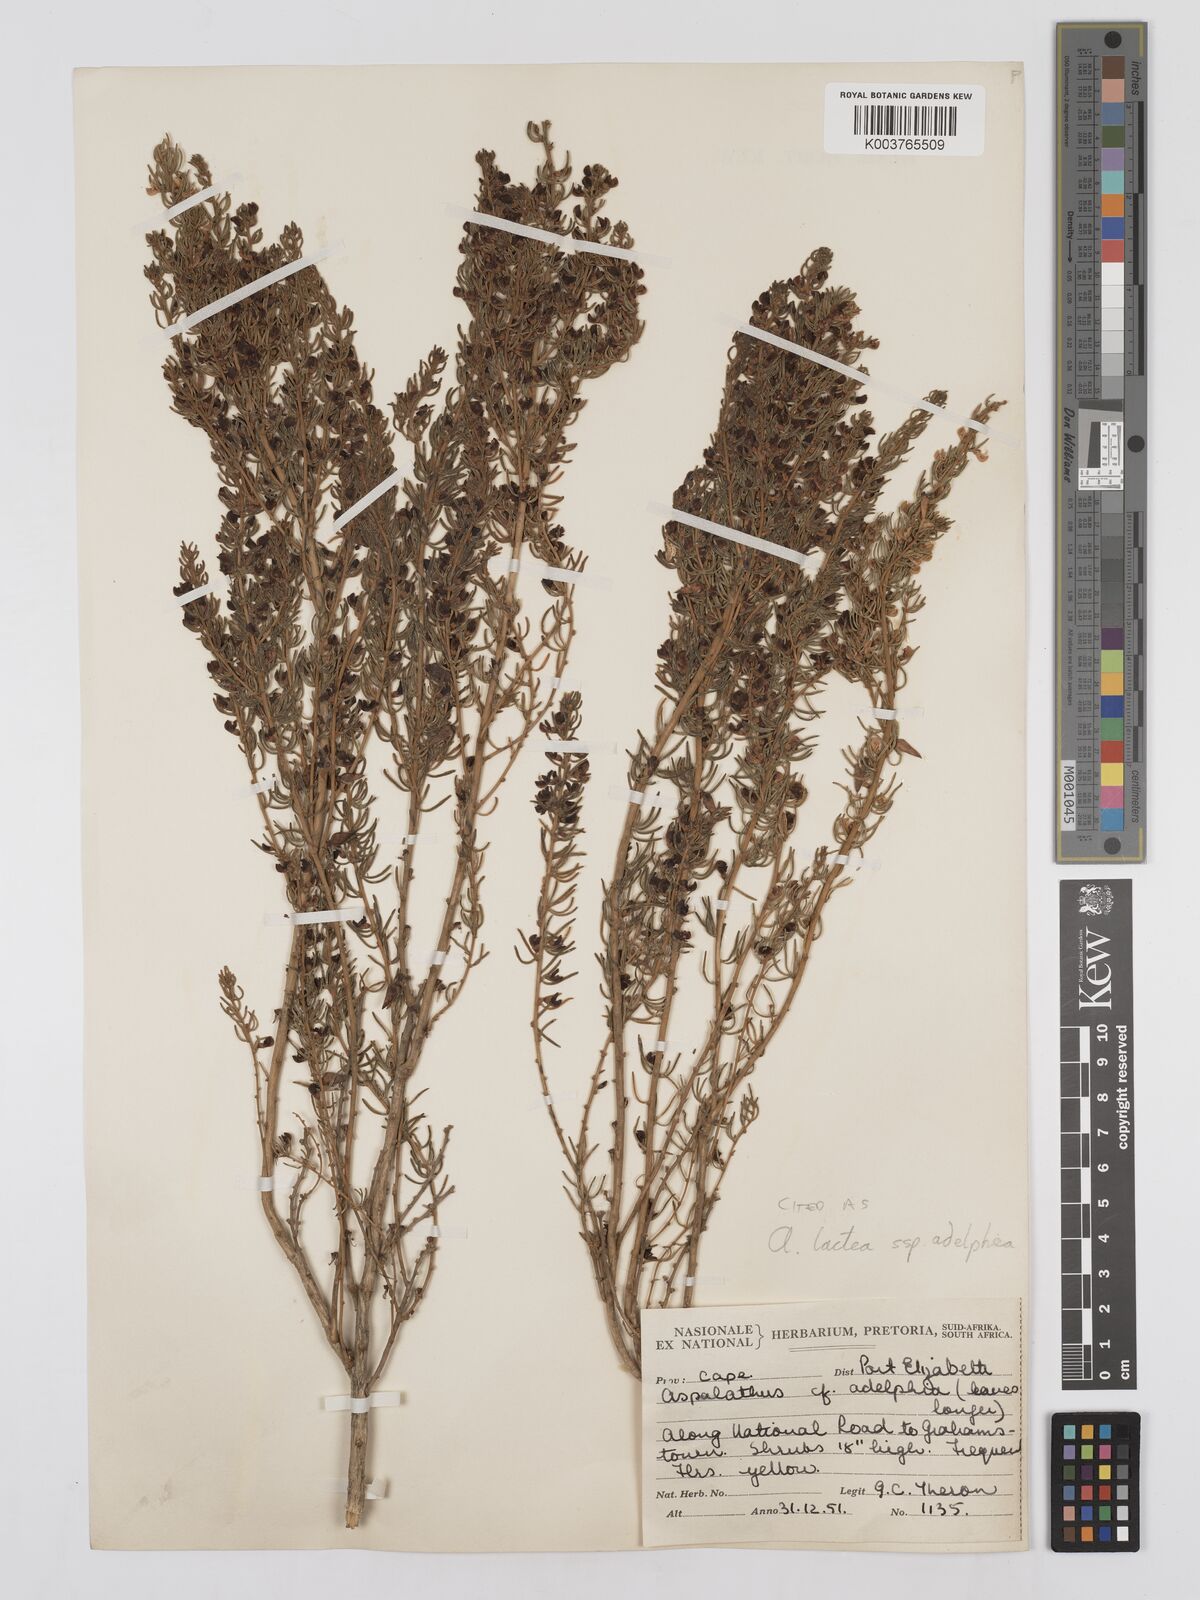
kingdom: Plantae
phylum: Tracheophyta
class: Magnoliopsida
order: Fabales
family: Fabaceae
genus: Aspalathus
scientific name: Aspalathus lactea
